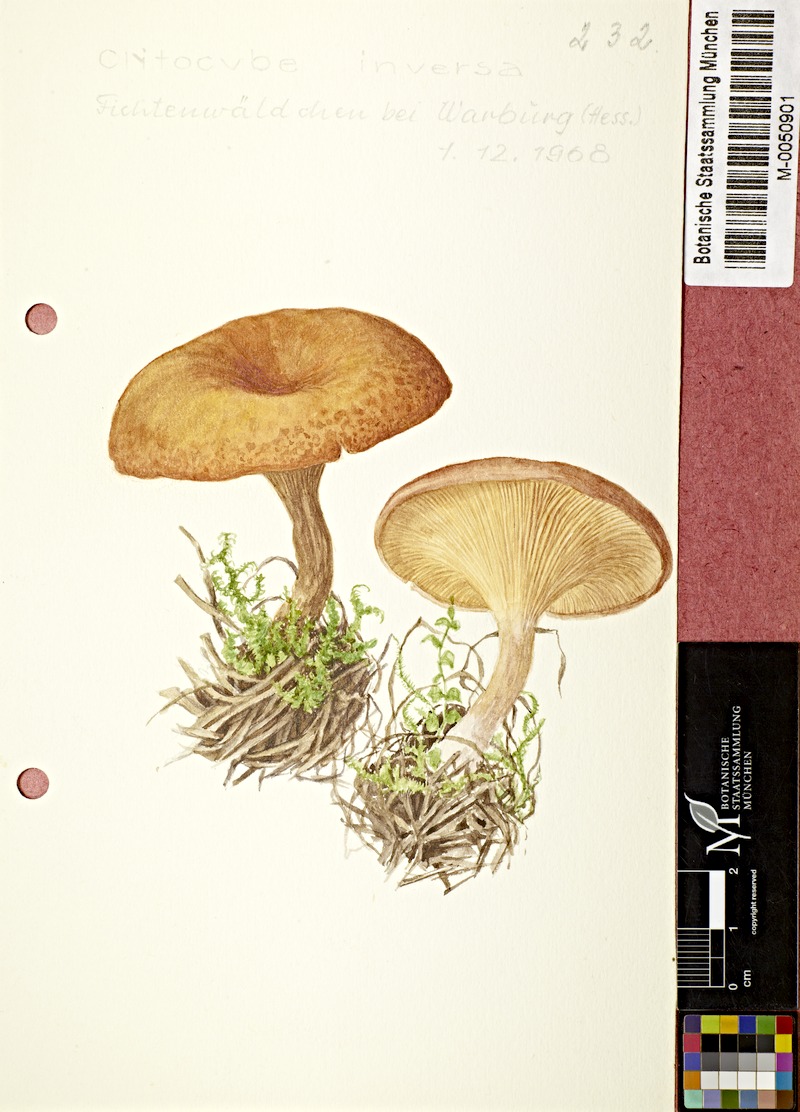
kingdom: Fungi
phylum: Basidiomycota
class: Agaricomycetes
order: Agaricales
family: Tricholomataceae
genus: Paralepista
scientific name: Paralepista flaccida
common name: Tawny funnel cap
